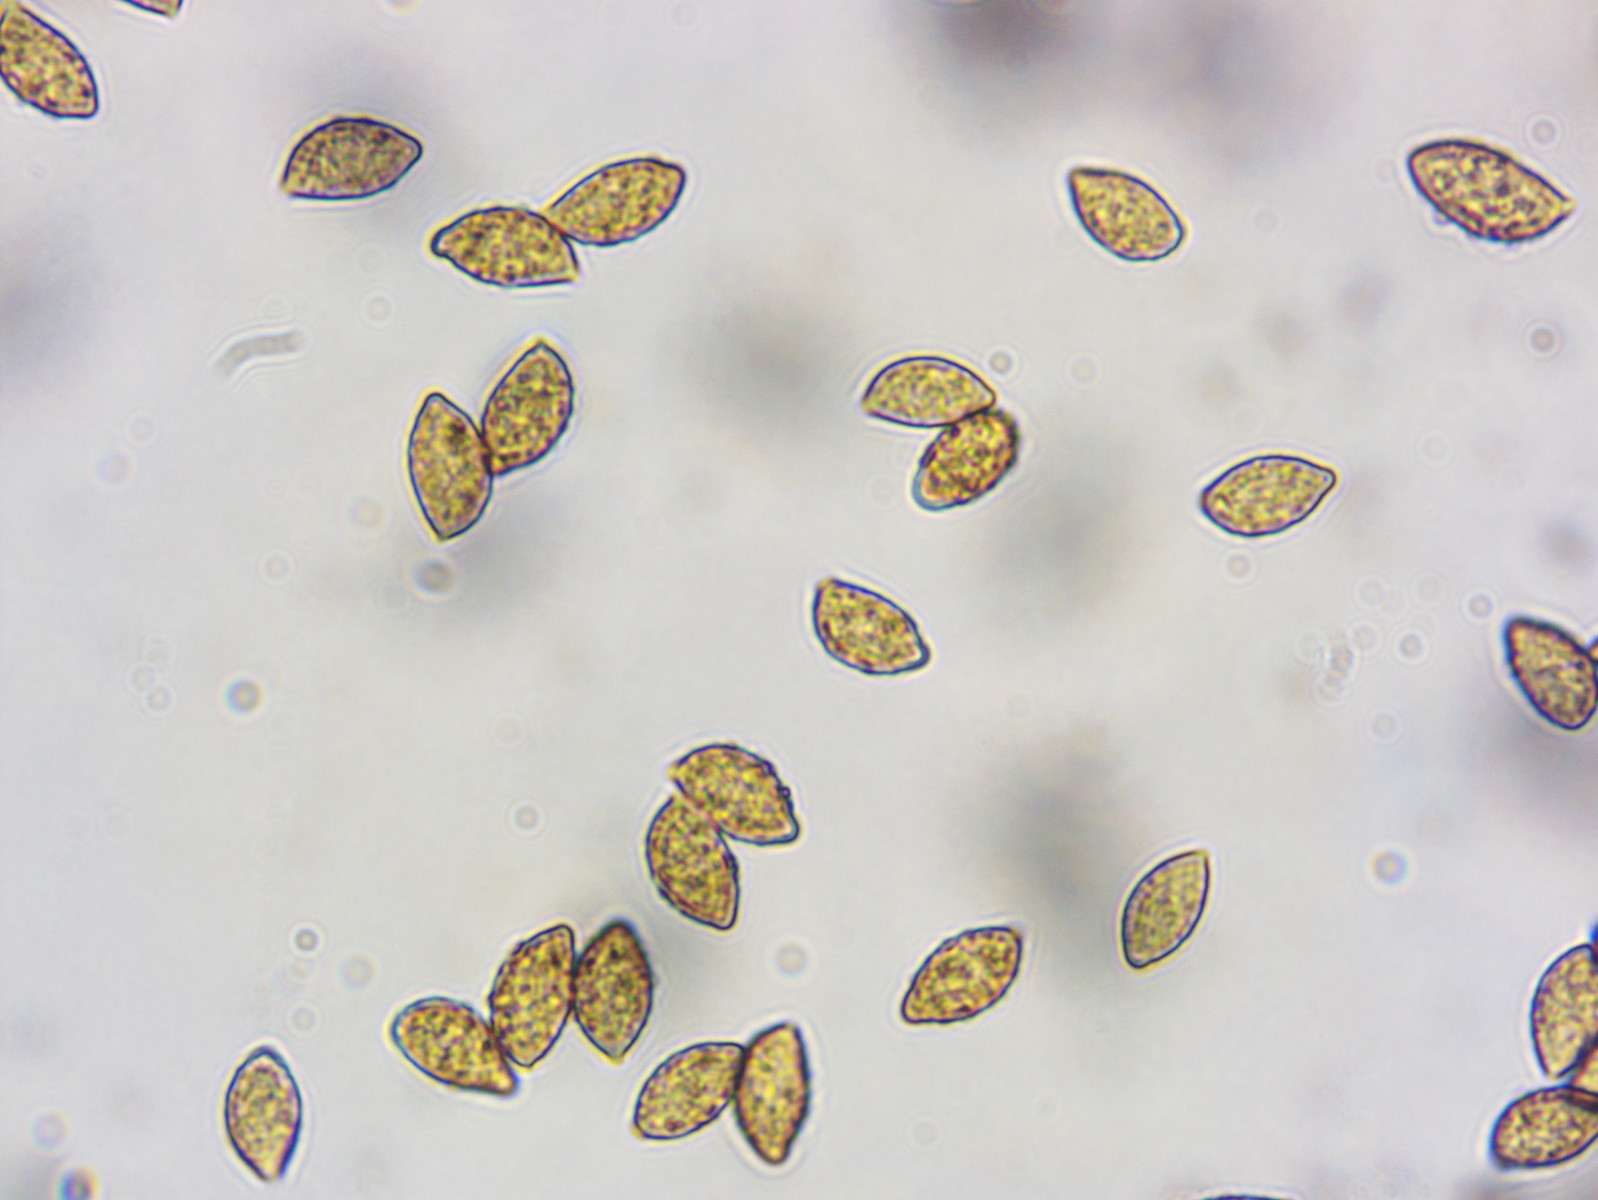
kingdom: Fungi
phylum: Basidiomycota
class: Agaricomycetes
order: Agaricales
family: Cortinariaceae
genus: Calonarius
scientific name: Calonarius splendens
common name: sirene-slørhat
